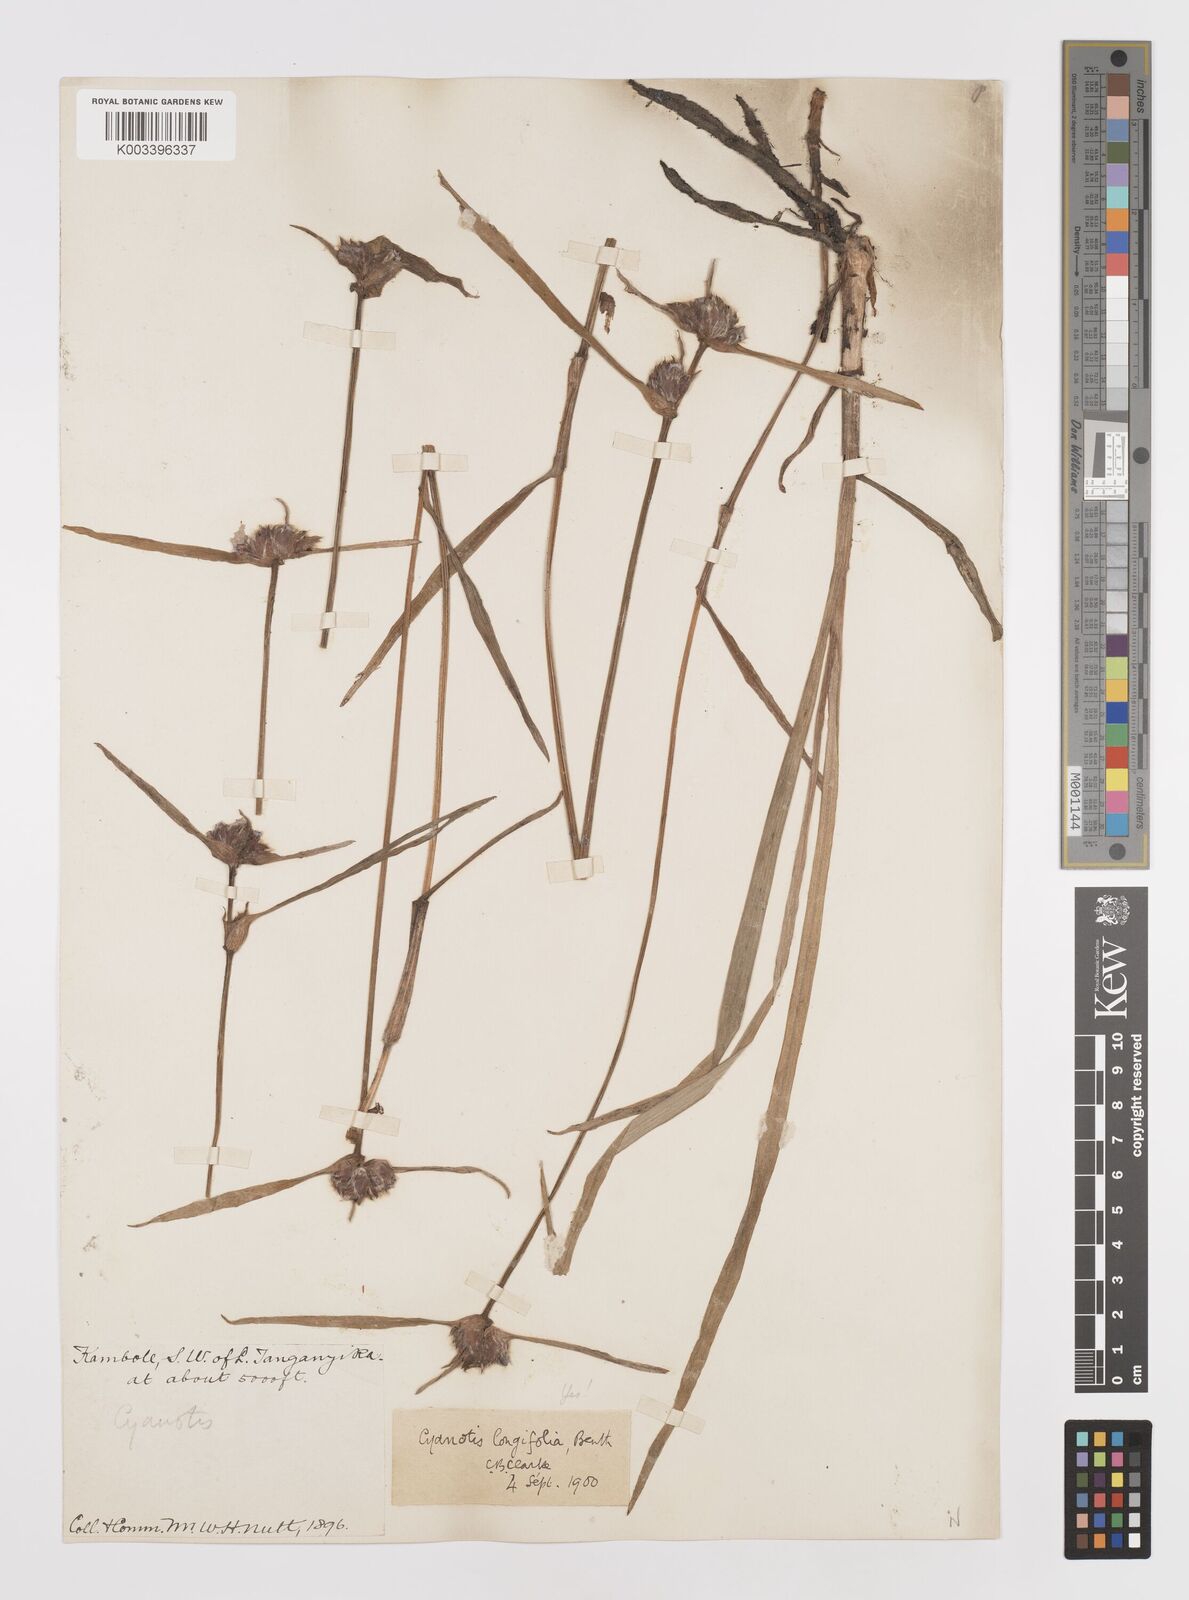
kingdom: Plantae
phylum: Tracheophyta
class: Liliopsida
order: Commelinales
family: Commelinaceae
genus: Cyanotis
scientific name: Cyanotis longifolia
